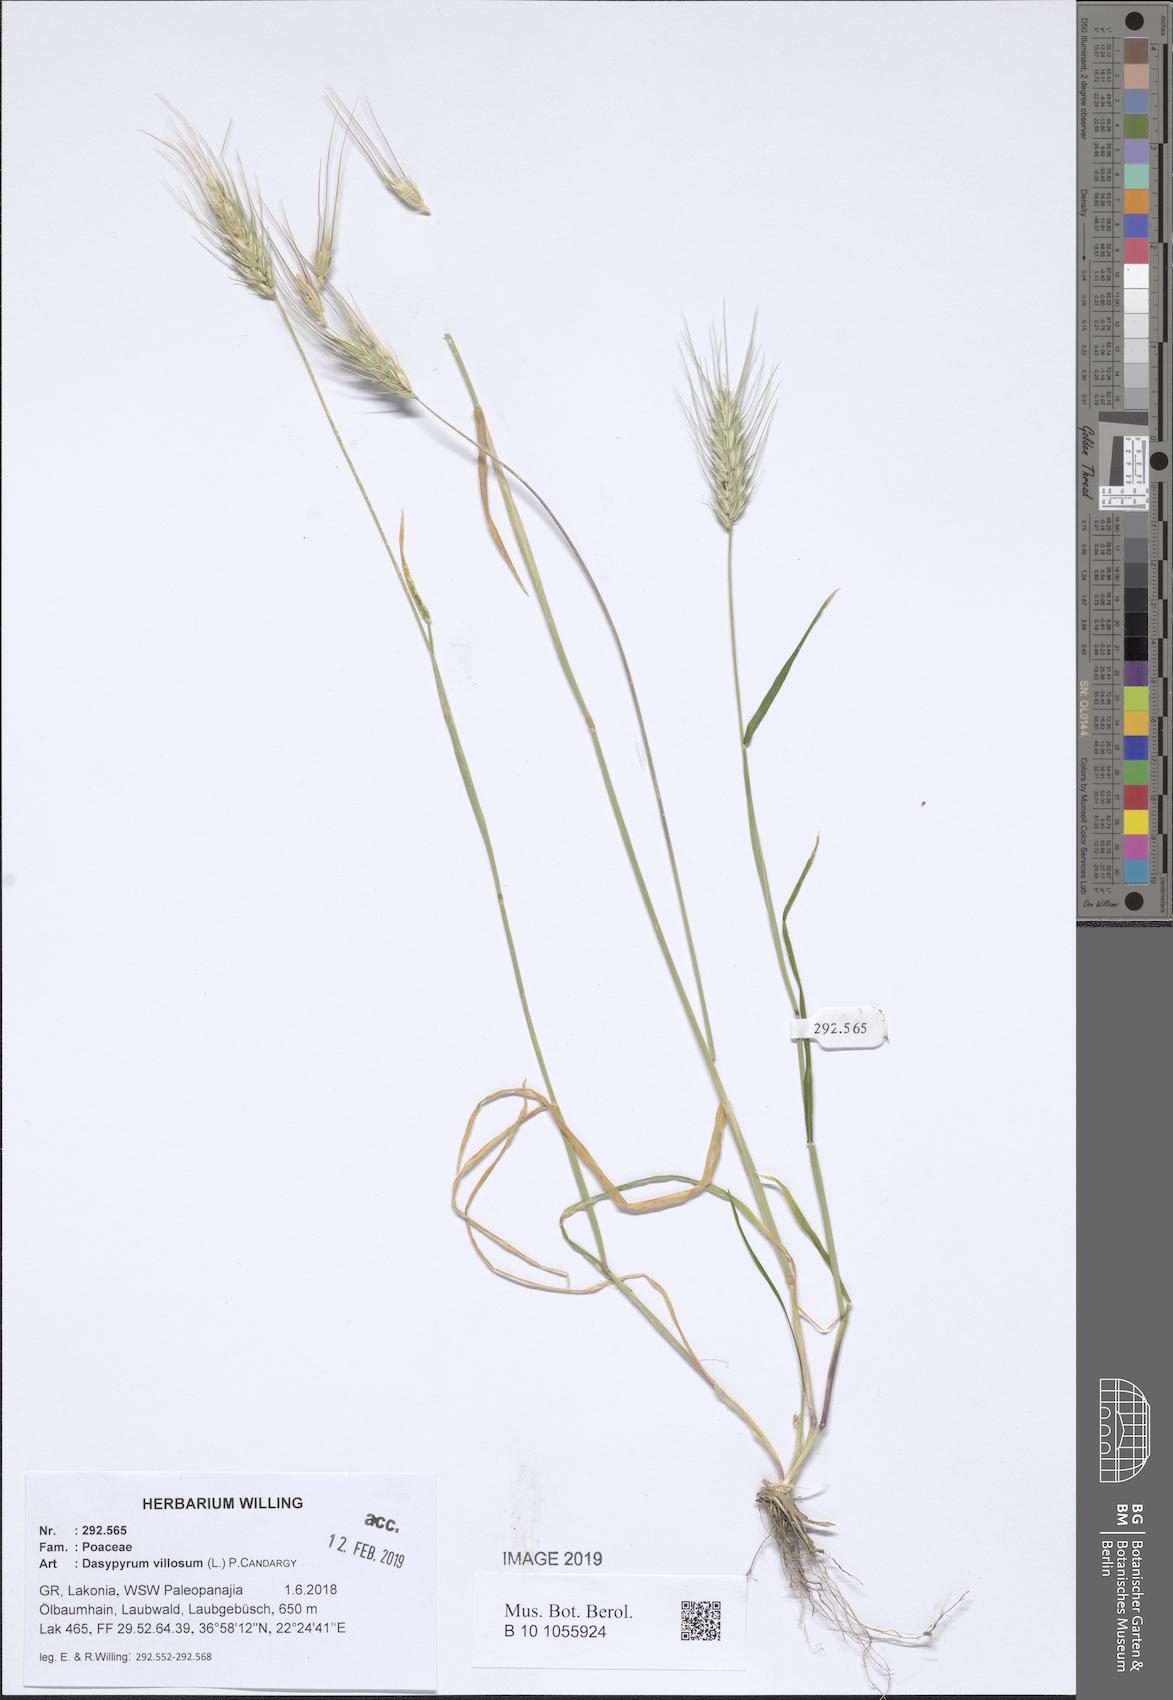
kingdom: Plantae
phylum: Tracheophyta
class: Liliopsida
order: Poales
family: Poaceae
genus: Dasypyrum
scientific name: Dasypyrum villosum
